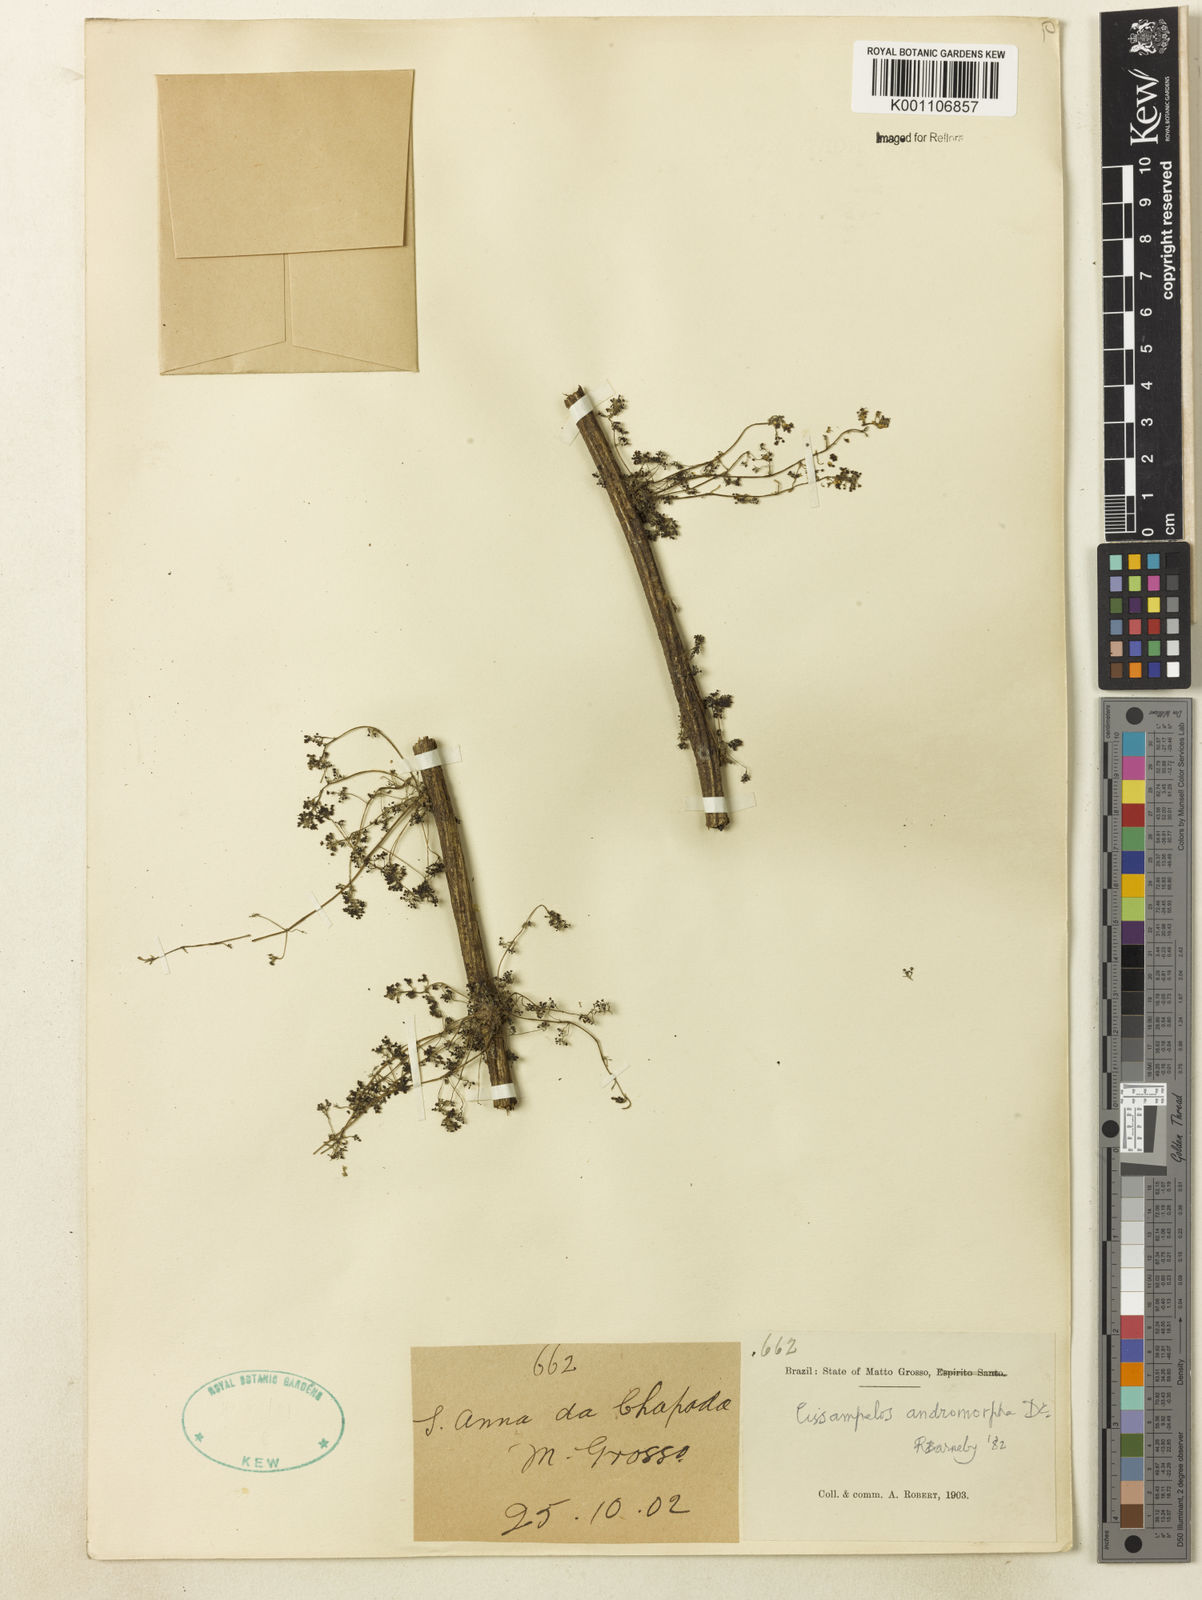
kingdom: Plantae
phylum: Tracheophyta
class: Magnoliopsida
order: Ranunculales
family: Menispermaceae
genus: Cissampelos
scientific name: Cissampelos andromorpha
